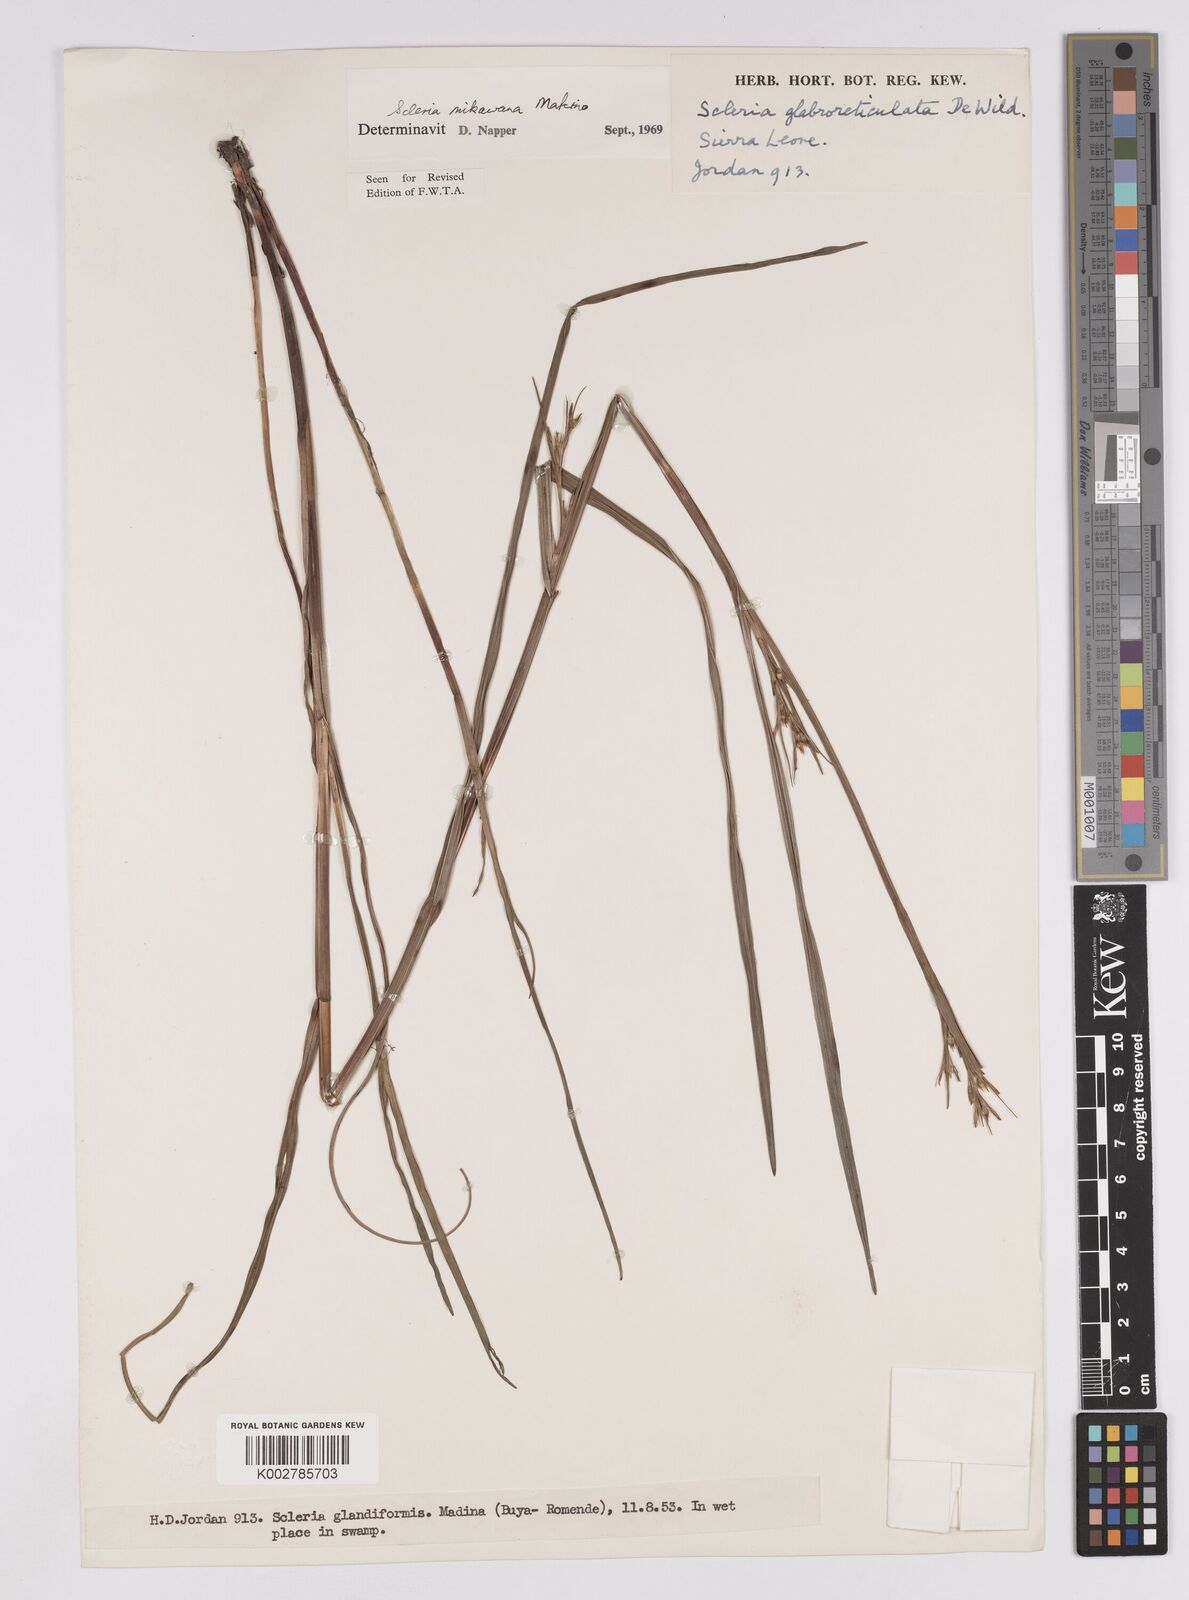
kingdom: Plantae
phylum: Tracheophyta
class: Liliopsida
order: Poales
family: Cyperaceae
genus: Scleria
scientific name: Scleria mikawana
